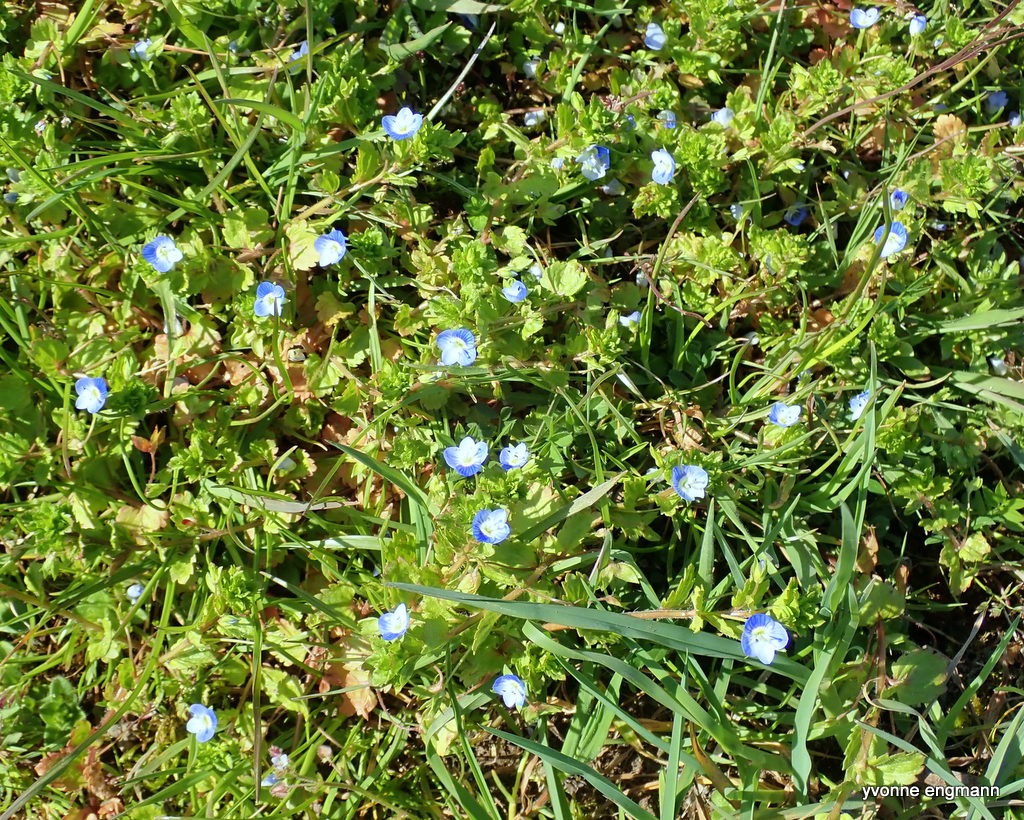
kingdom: Plantae
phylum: Tracheophyta
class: Magnoliopsida
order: Lamiales
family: Plantaginaceae
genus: Veronica
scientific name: Veronica persica
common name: Storkronet ærenpris
